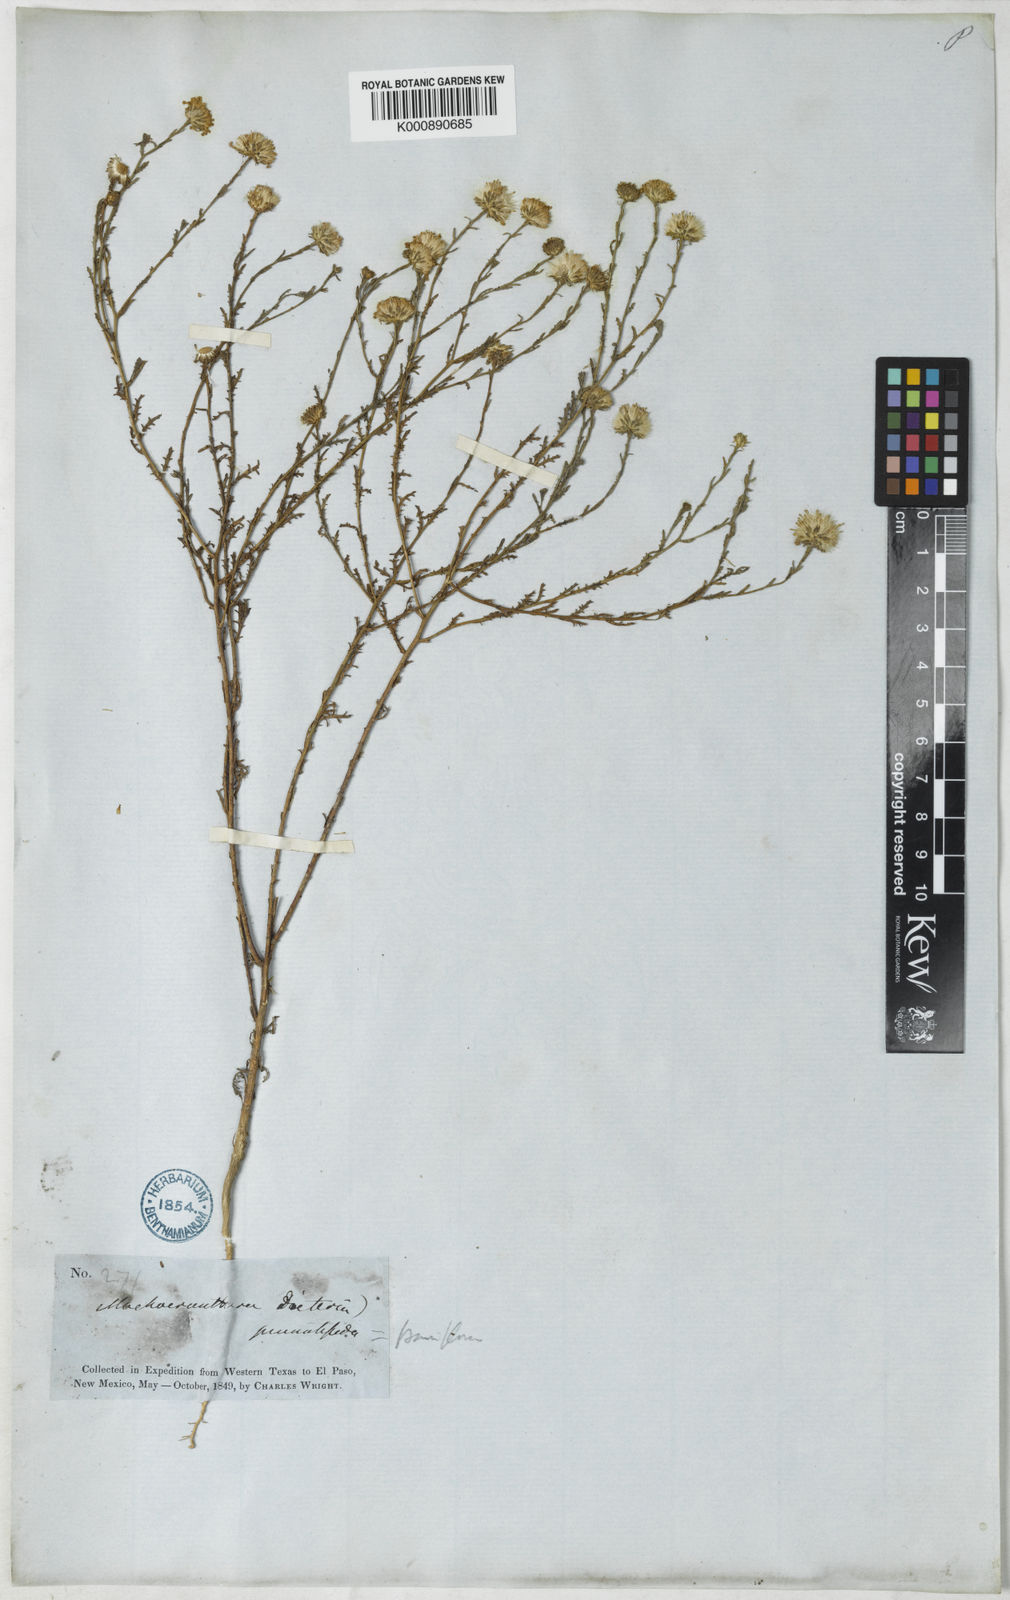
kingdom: Plantae
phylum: Tracheophyta
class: Magnoliopsida
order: Asterales
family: Asteraceae
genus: Symphyotrichum
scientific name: Symphyotrichum expansum
